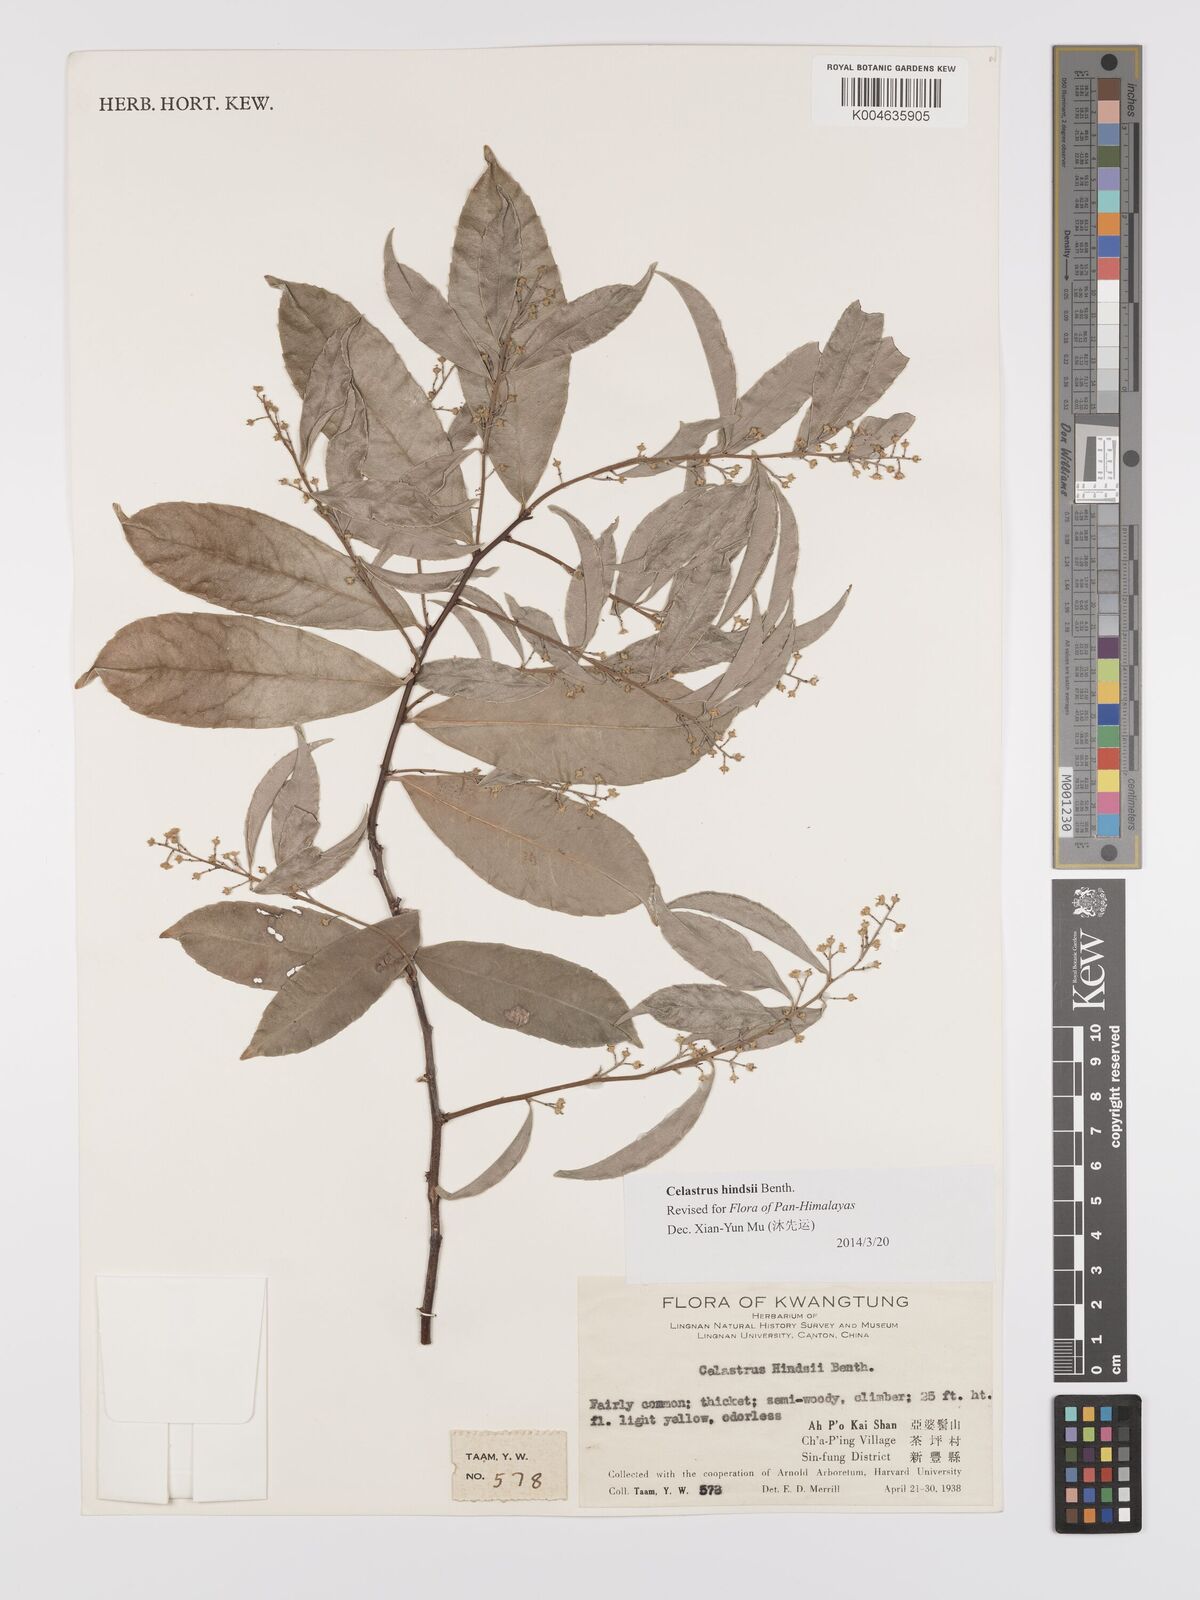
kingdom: Plantae
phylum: Tracheophyta
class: Magnoliopsida
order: Celastrales
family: Celastraceae
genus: Celastrus
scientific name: Celastrus hindsii
